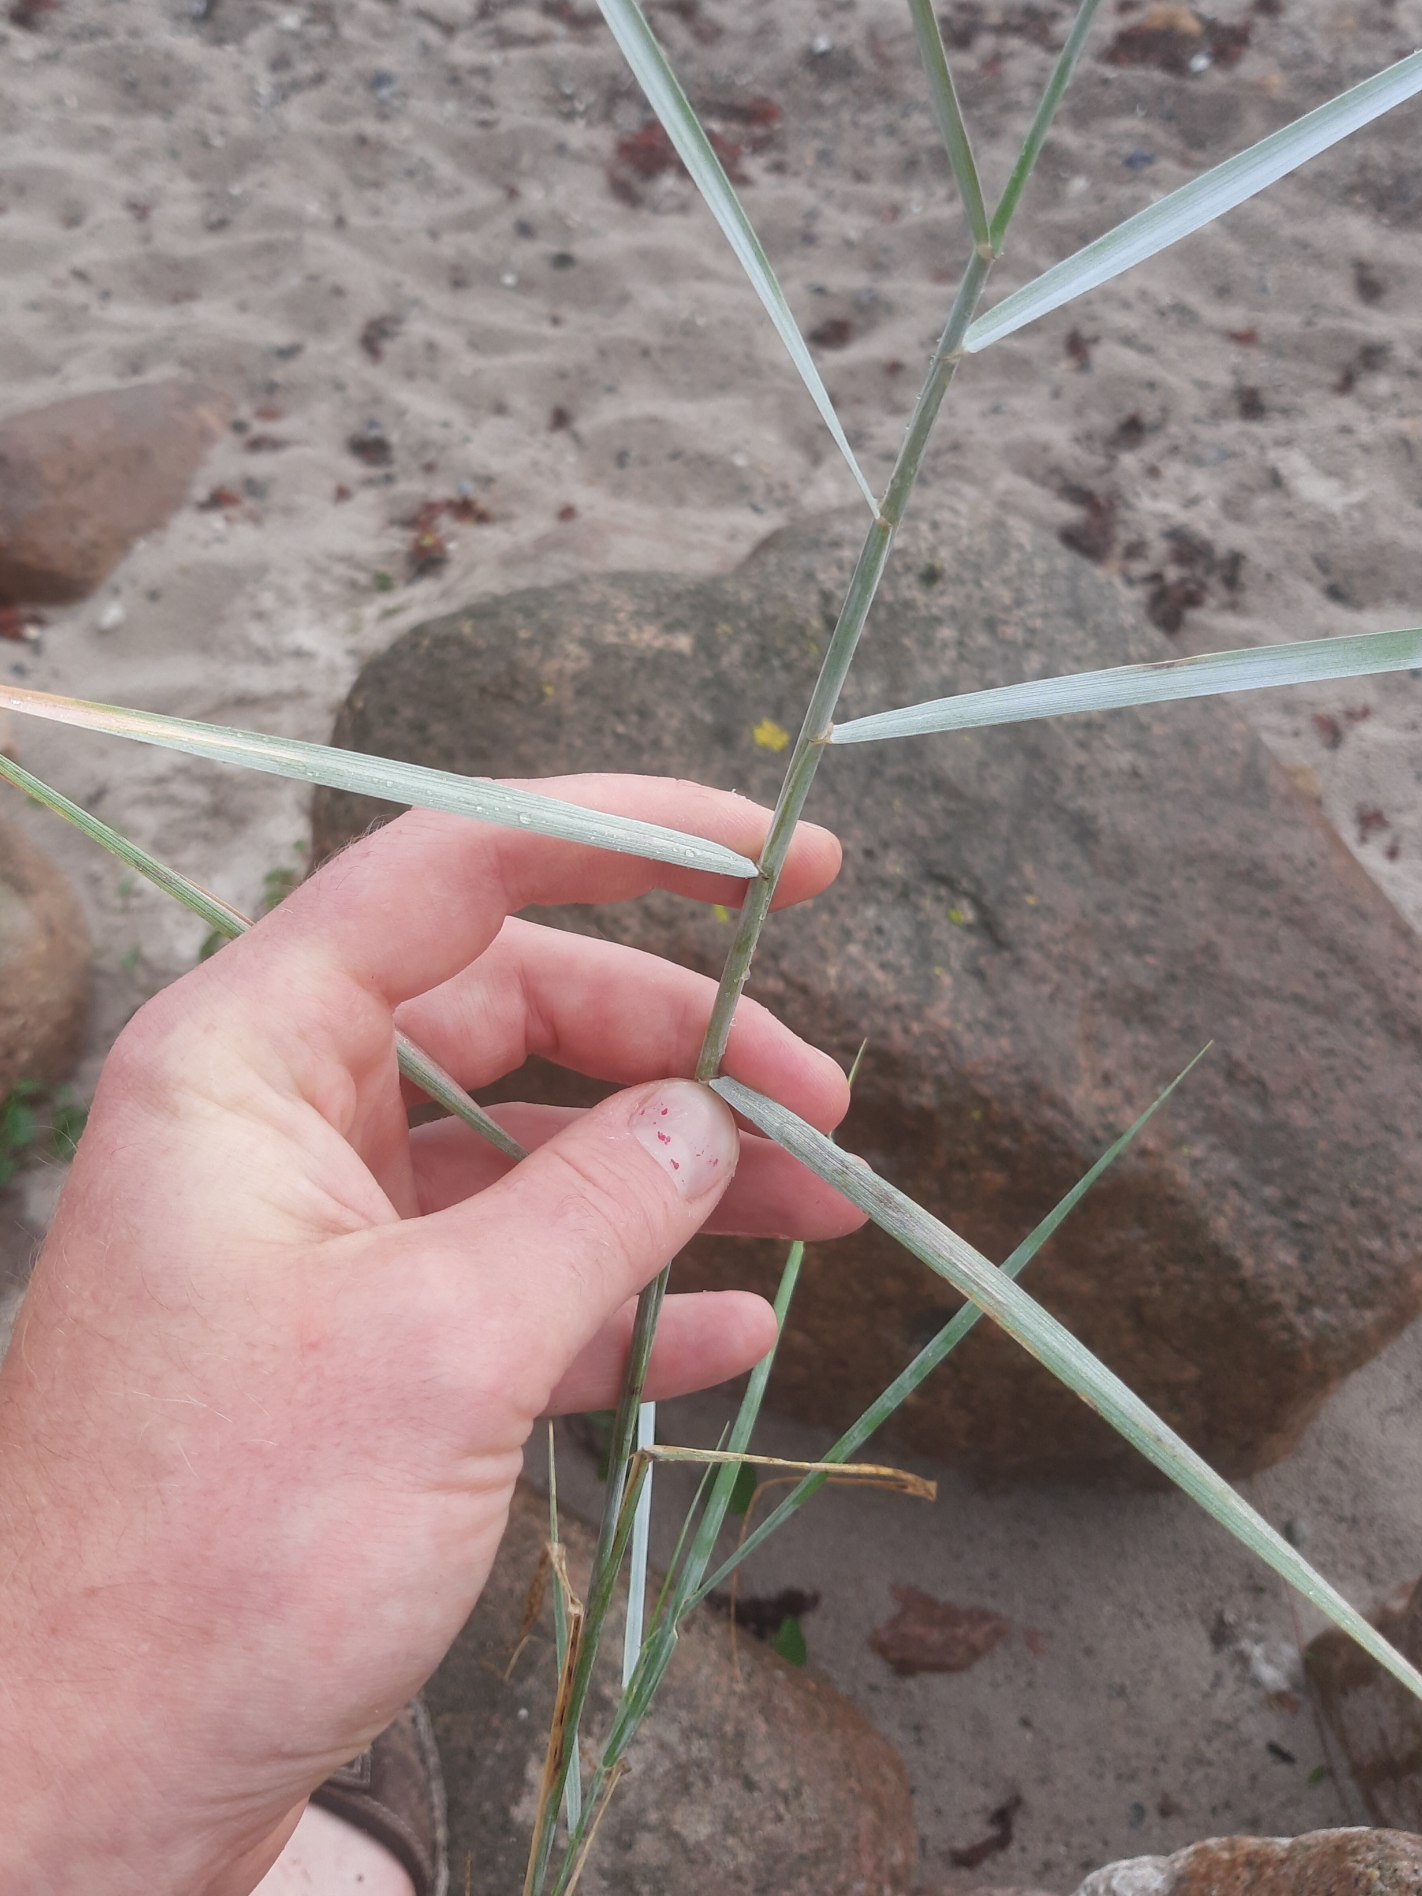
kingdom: Plantae
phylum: Tracheophyta
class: Liliopsida
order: Poales
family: Poaceae
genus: Elymus
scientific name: Elymus
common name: Hybrid-kvik
